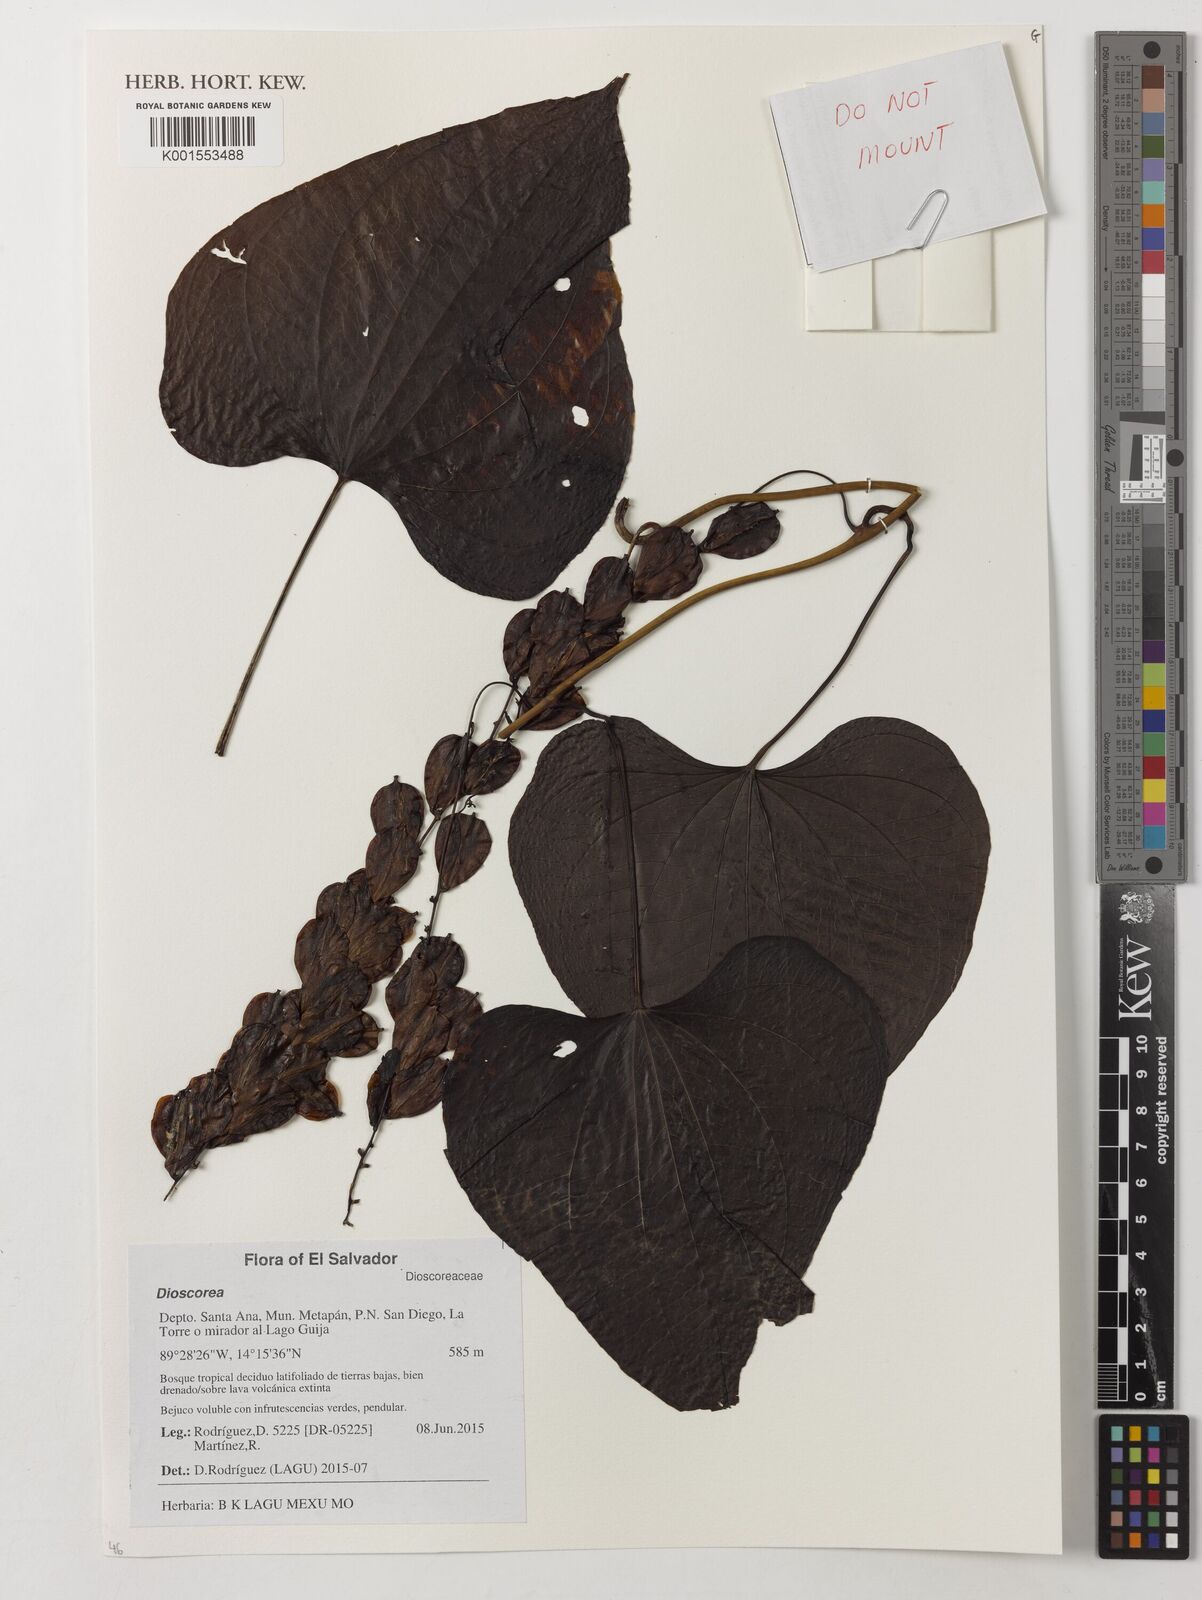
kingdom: Plantae
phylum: Tracheophyta
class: Liliopsida
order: Dioscoreales
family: Dioscoreaceae
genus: Dioscorea
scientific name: Dioscorea
